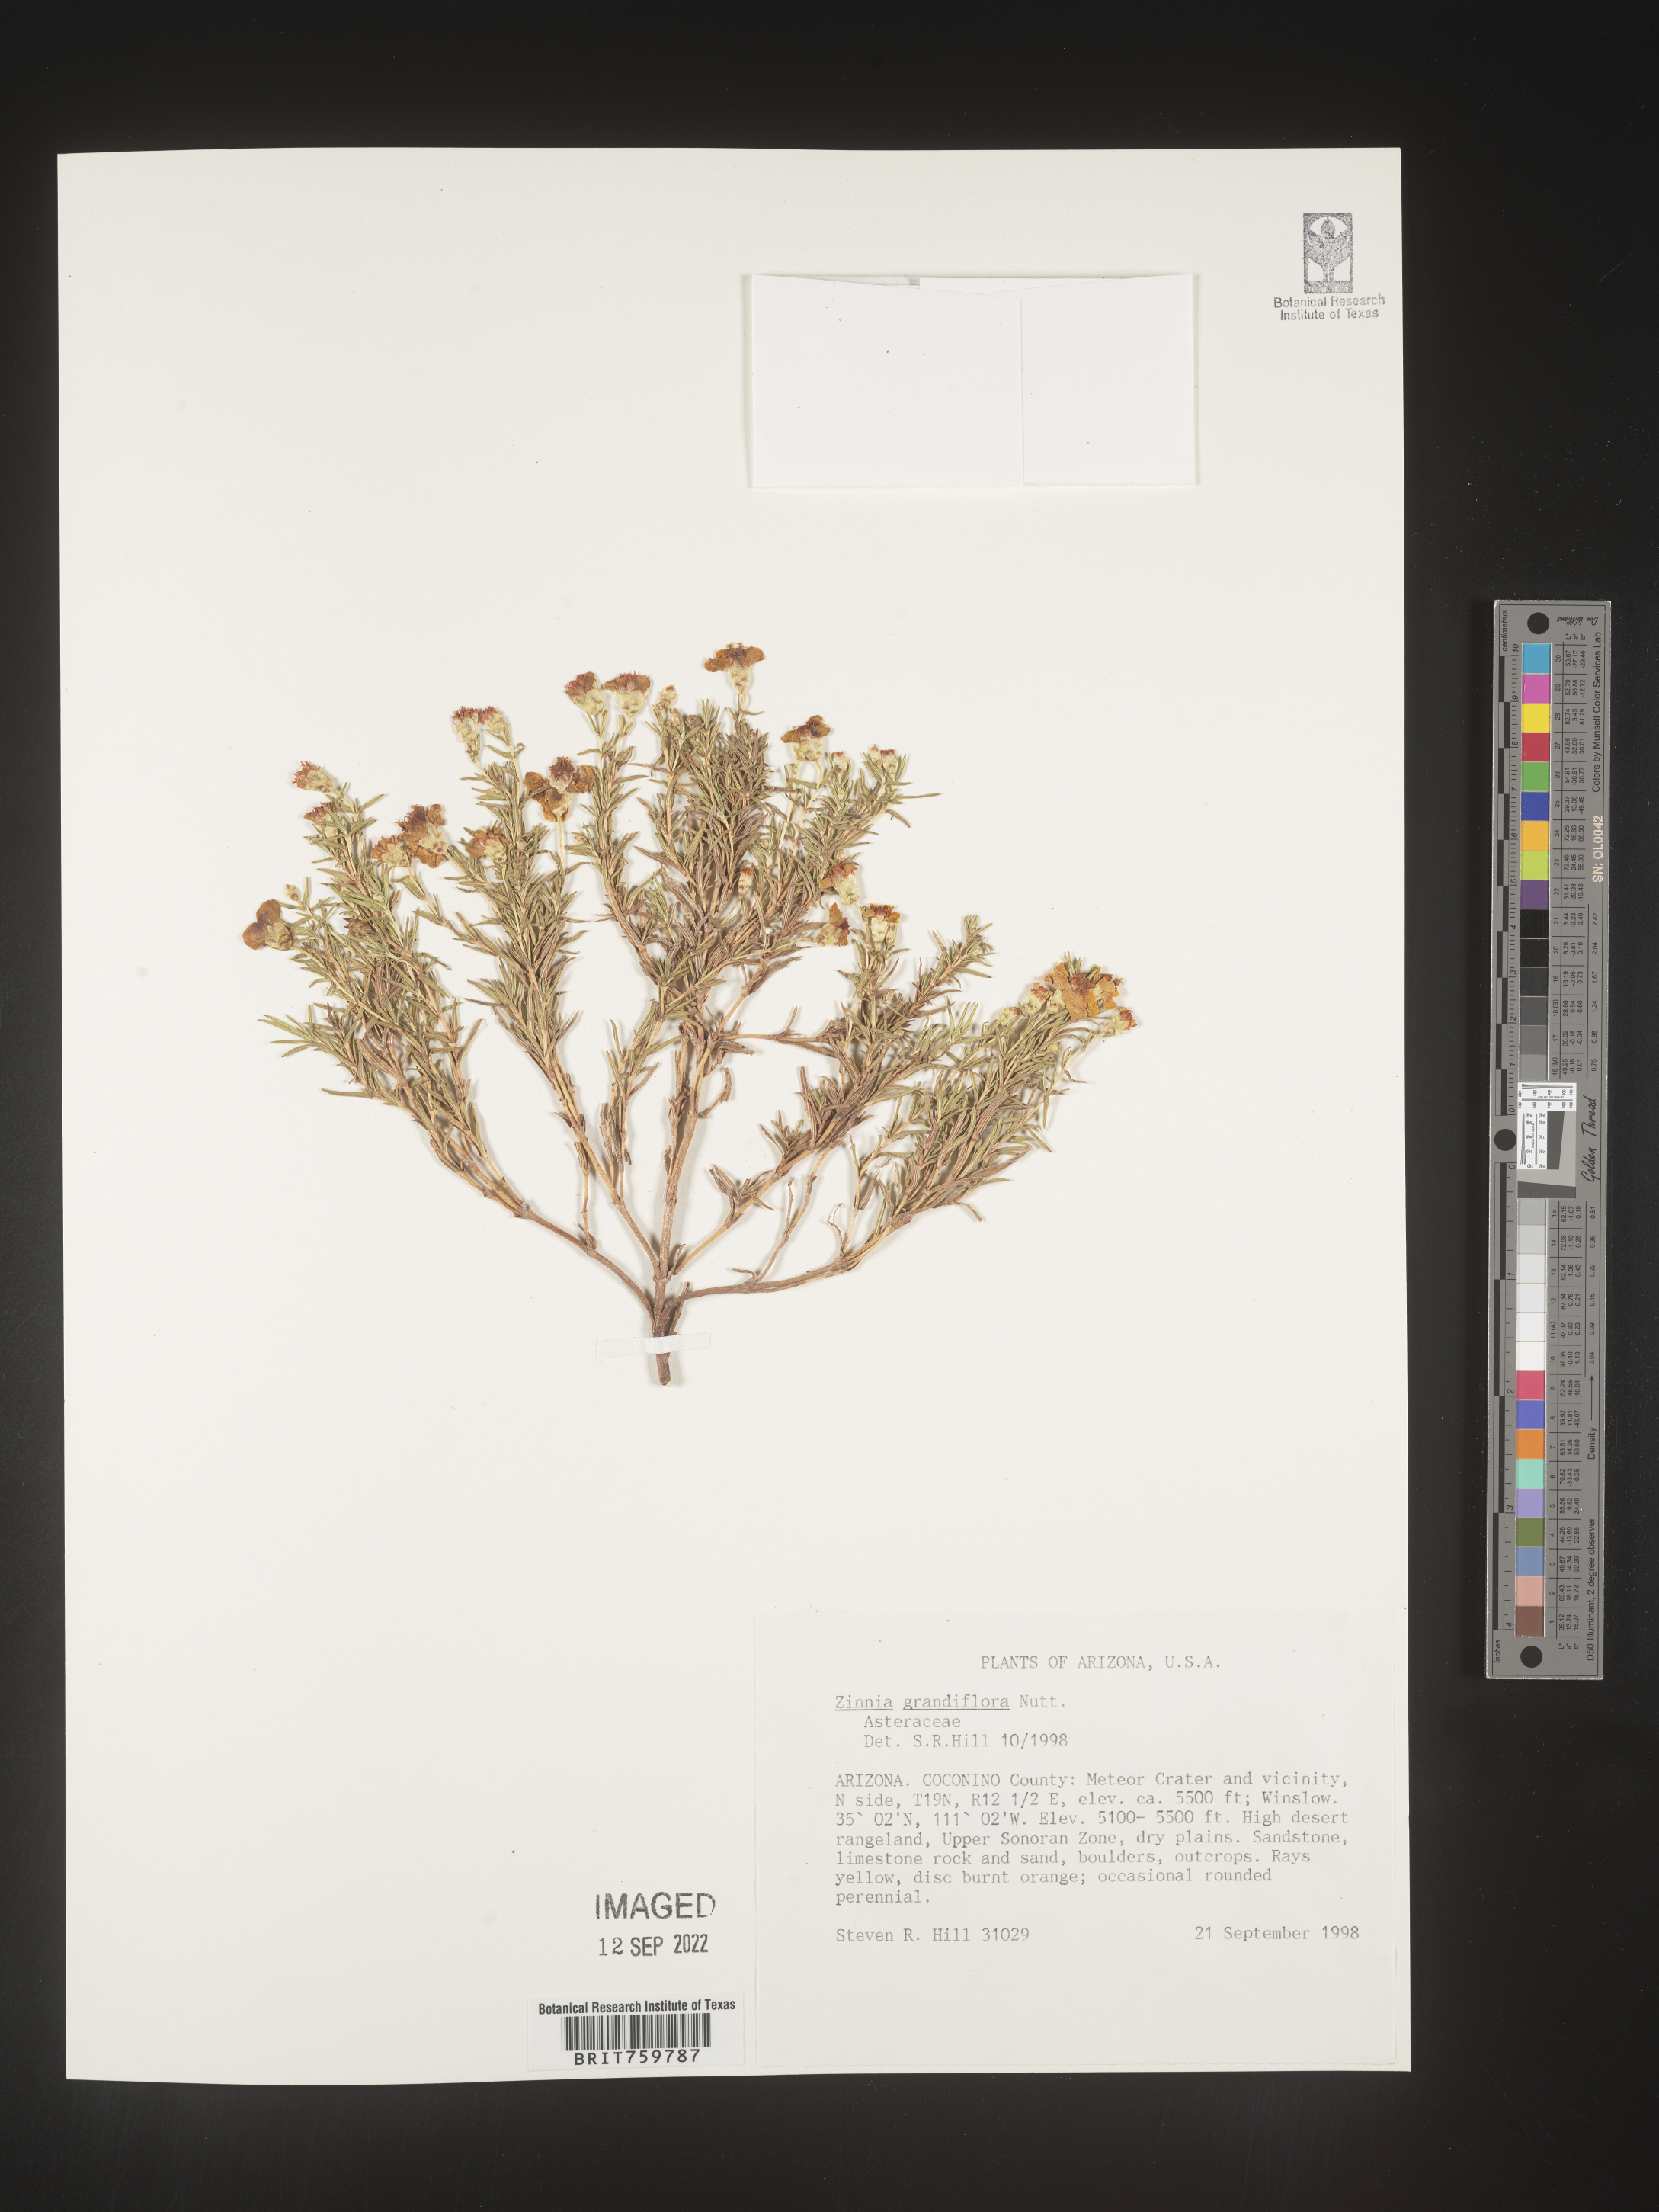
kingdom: Plantae
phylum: Tracheophyta
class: Magnoliopsida
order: Asterales
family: Asteraceae
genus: Zinnia
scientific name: Zinnia grandiflora
